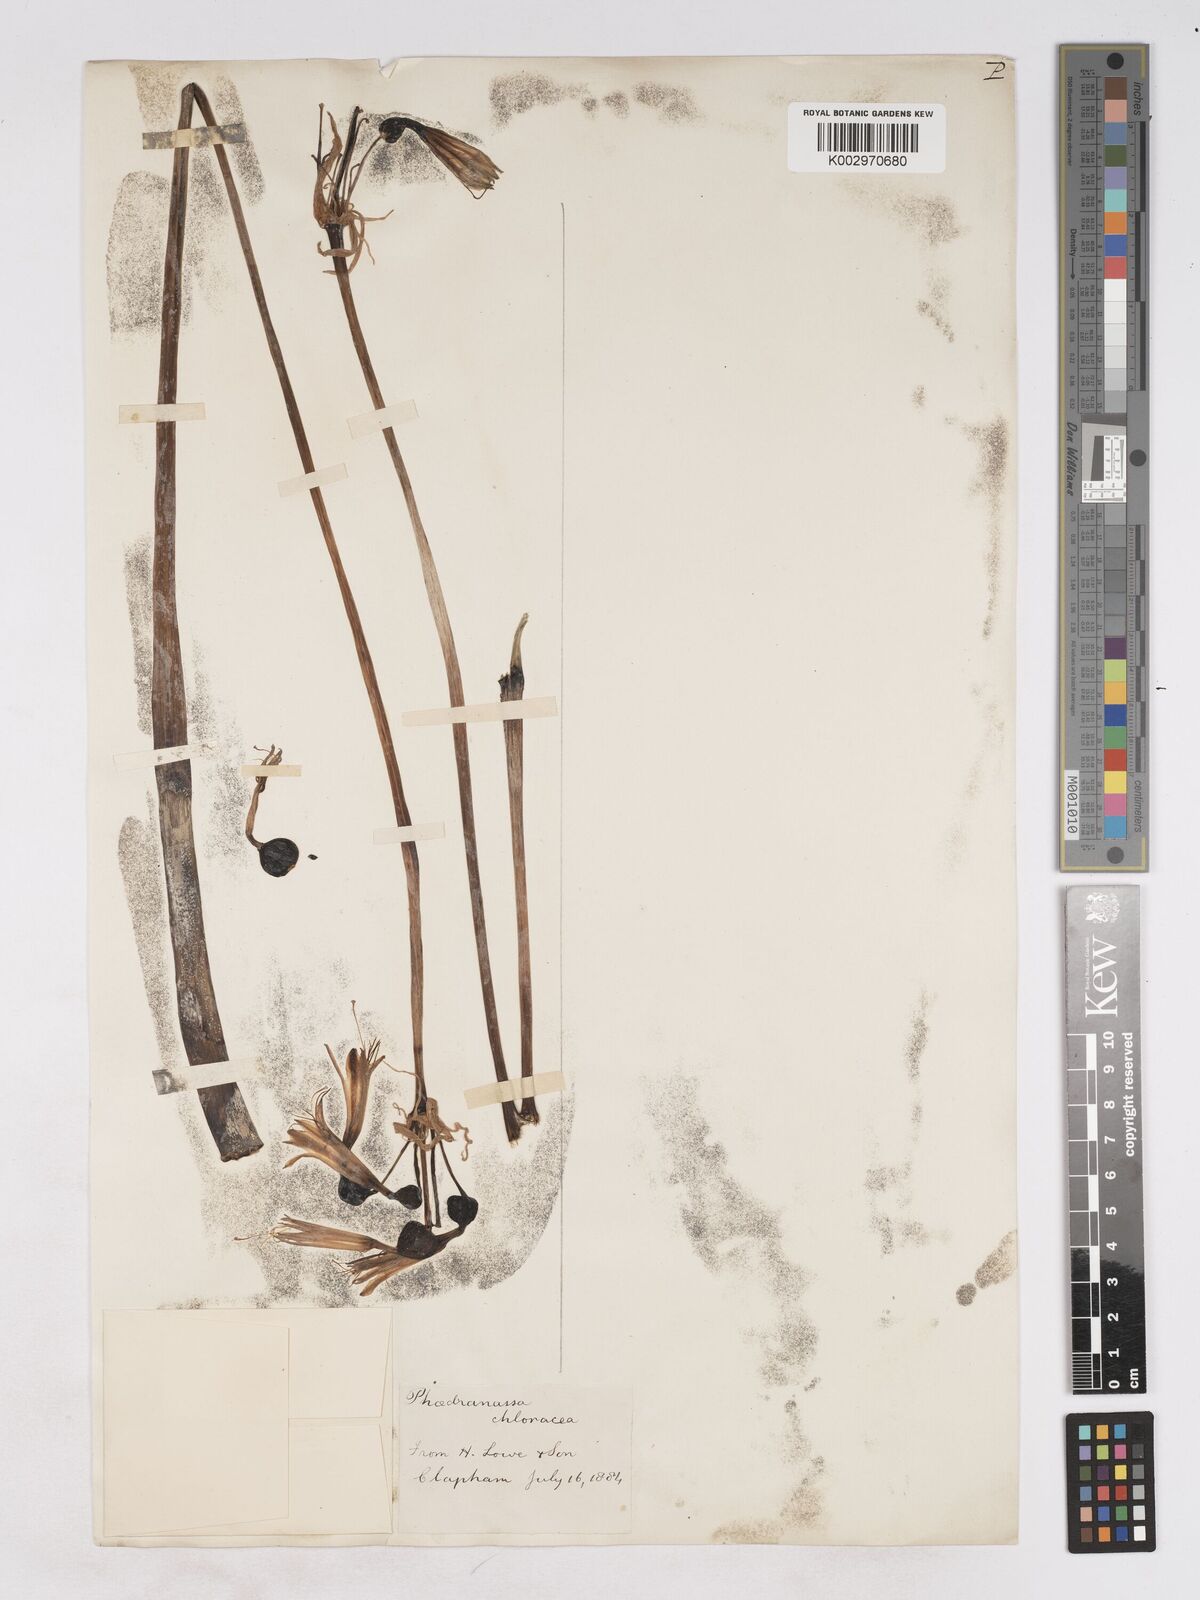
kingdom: Plantae
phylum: Tracheophyta
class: Liliopsida
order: Asparagales
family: Amaryllidaceae
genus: Phaedranassa
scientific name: Phaedranassa dubia
